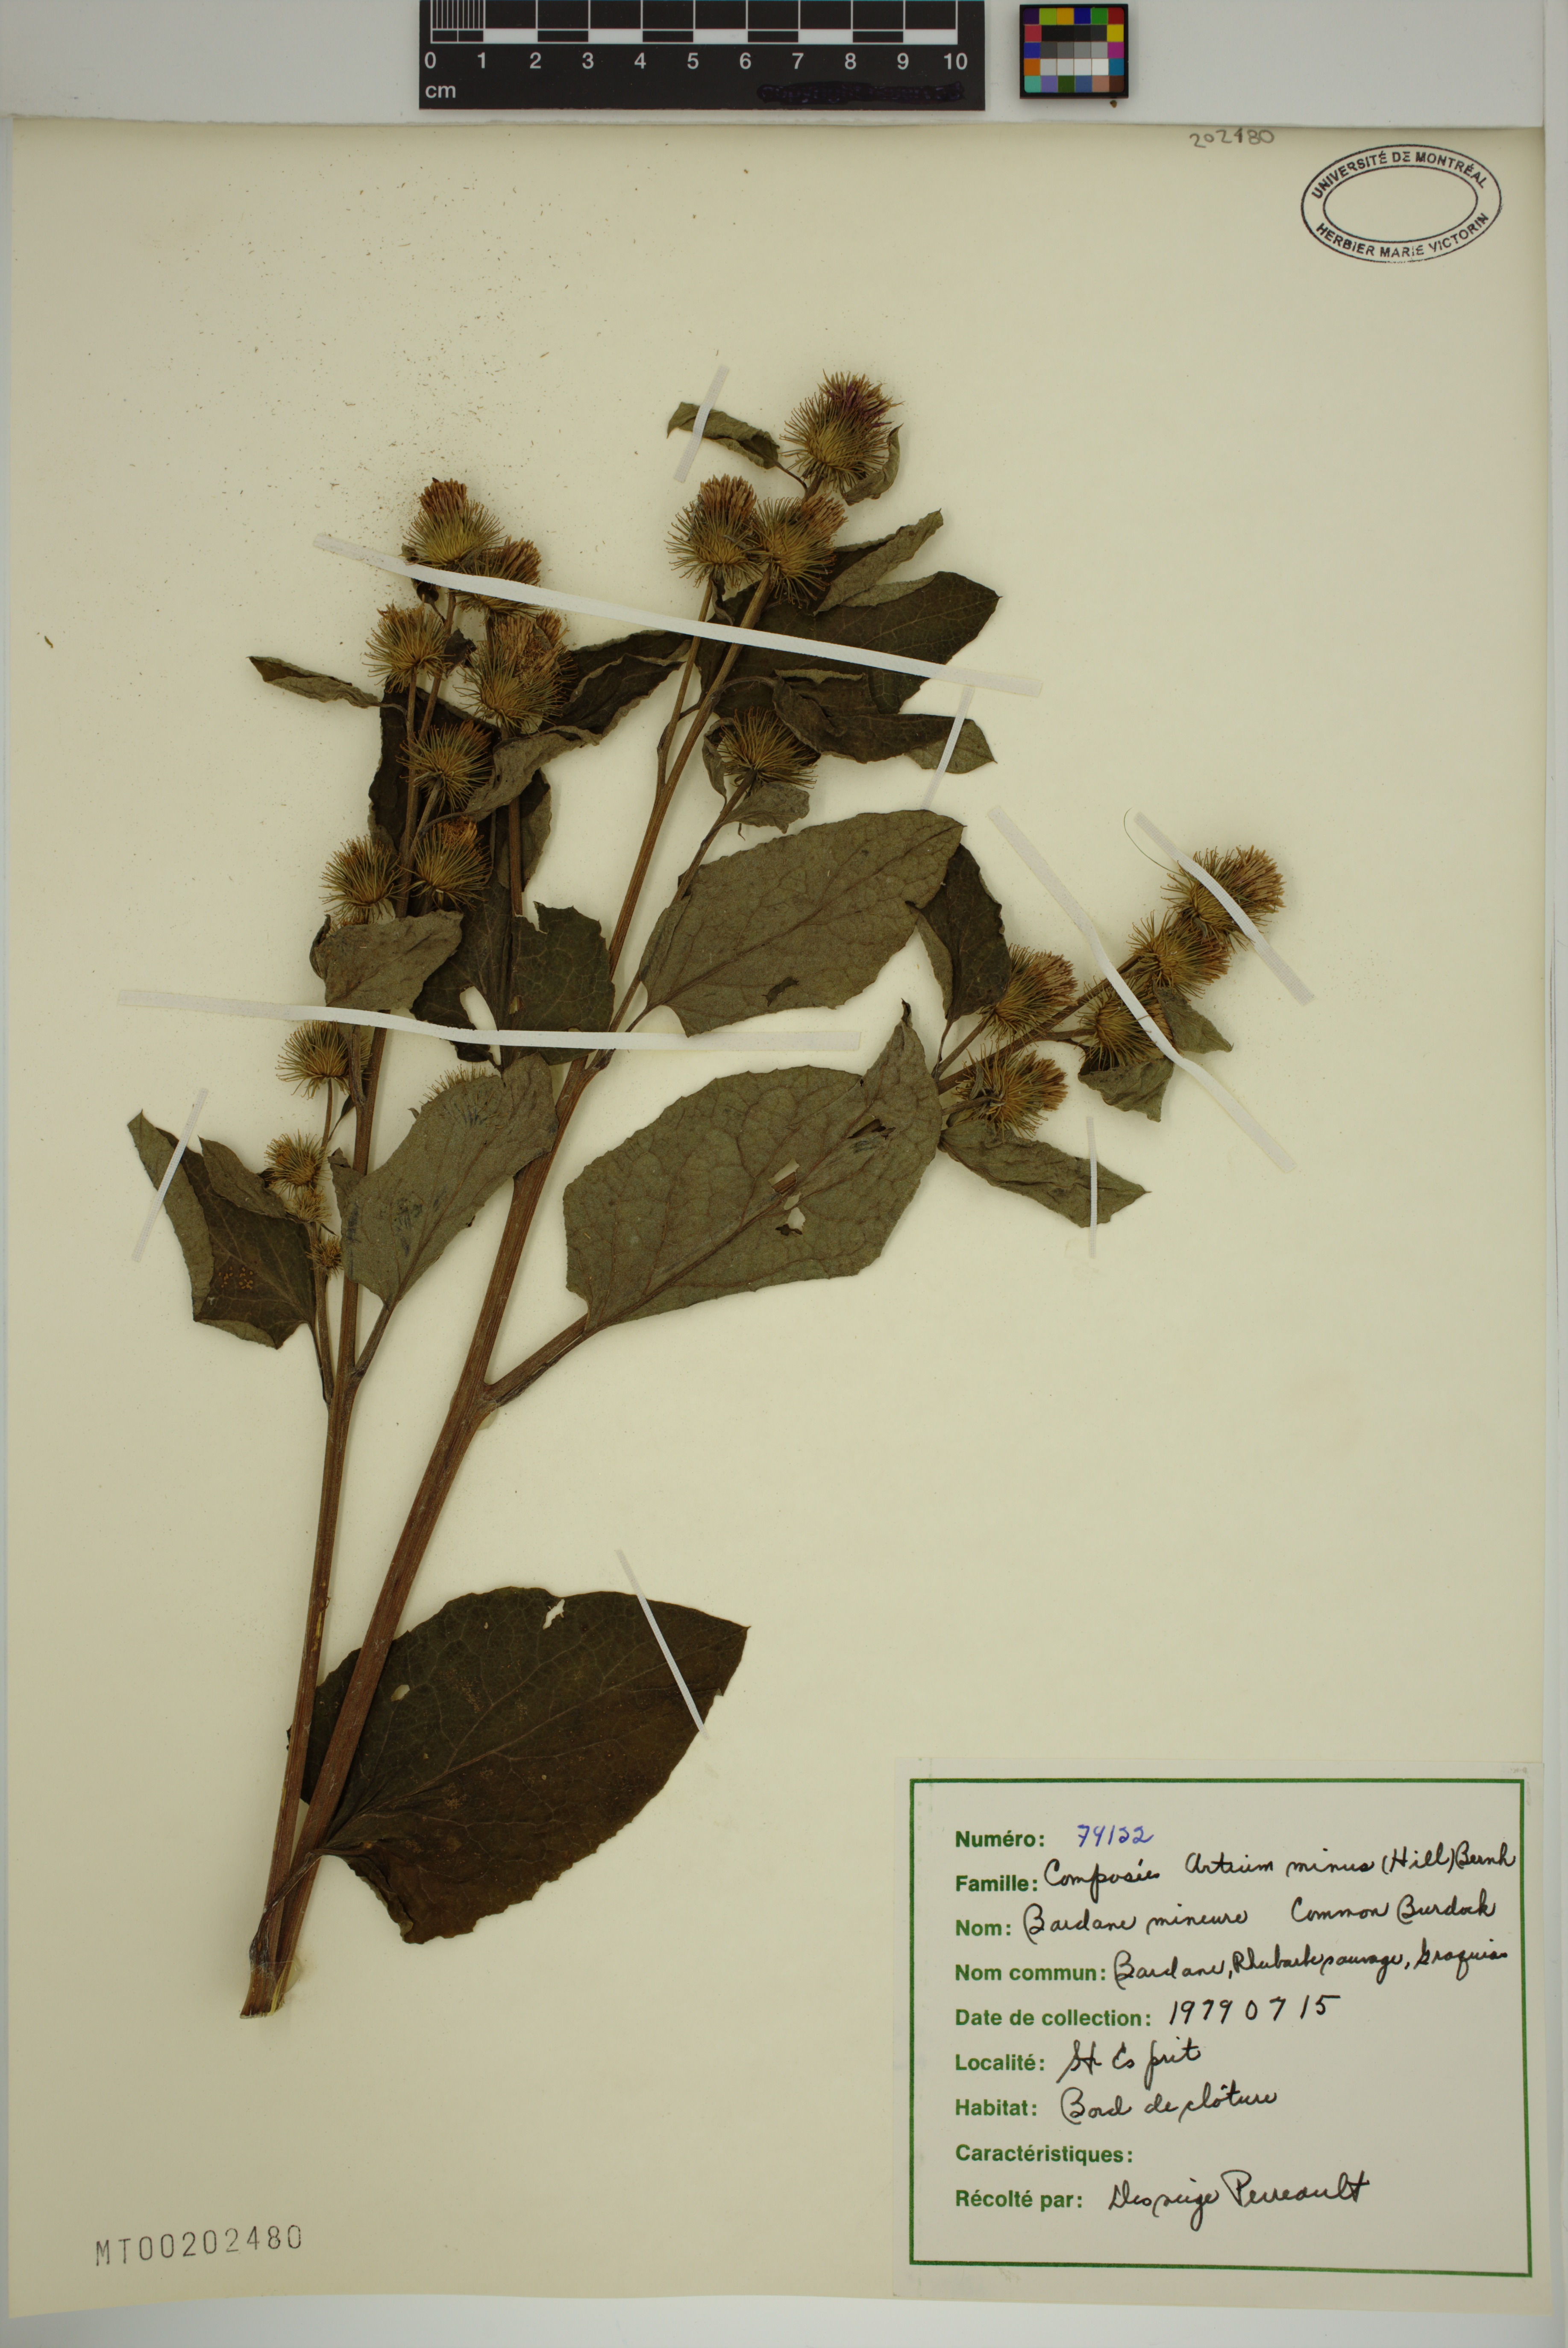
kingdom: Plantae
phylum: Tracheophyta
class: Magnoliopsida
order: Asterales
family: Asteraceae
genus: Arctium
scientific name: Arctium minus
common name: Lesser burdock
